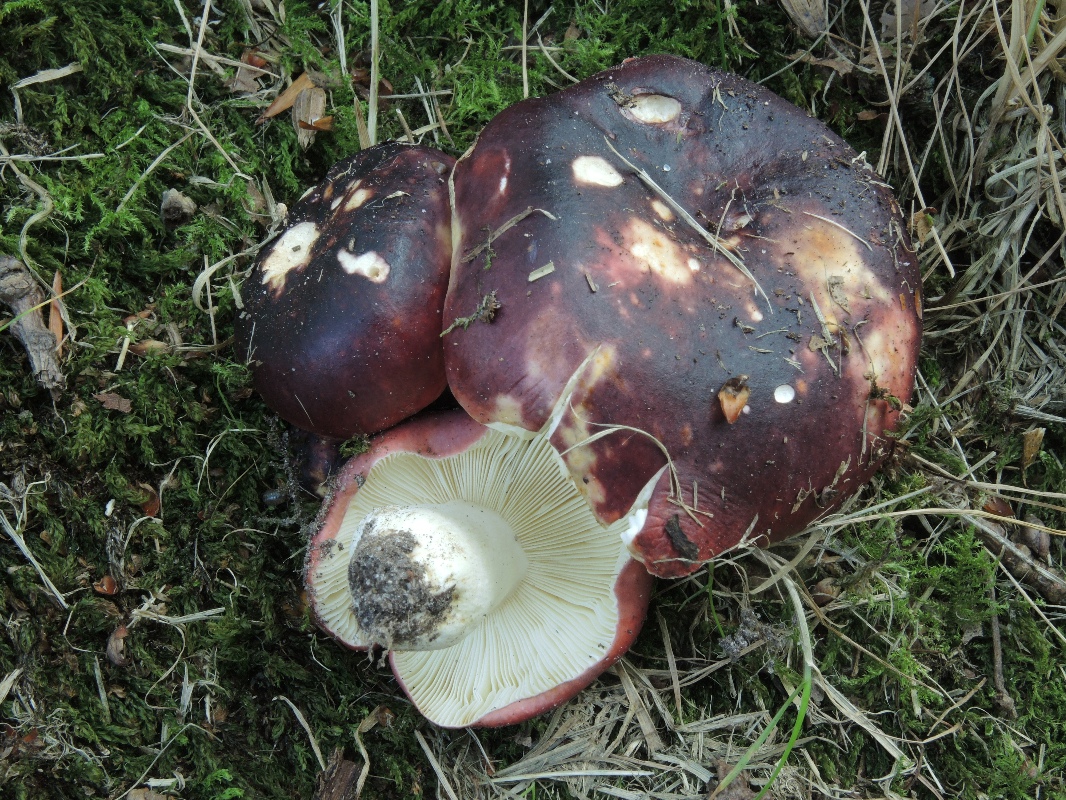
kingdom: Fungi
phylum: Basidiomycota
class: Agaricomycetes
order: Russulales
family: Russulaceae
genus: Russula
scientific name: Russula atropurpurea
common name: purpurbroget skørhat
